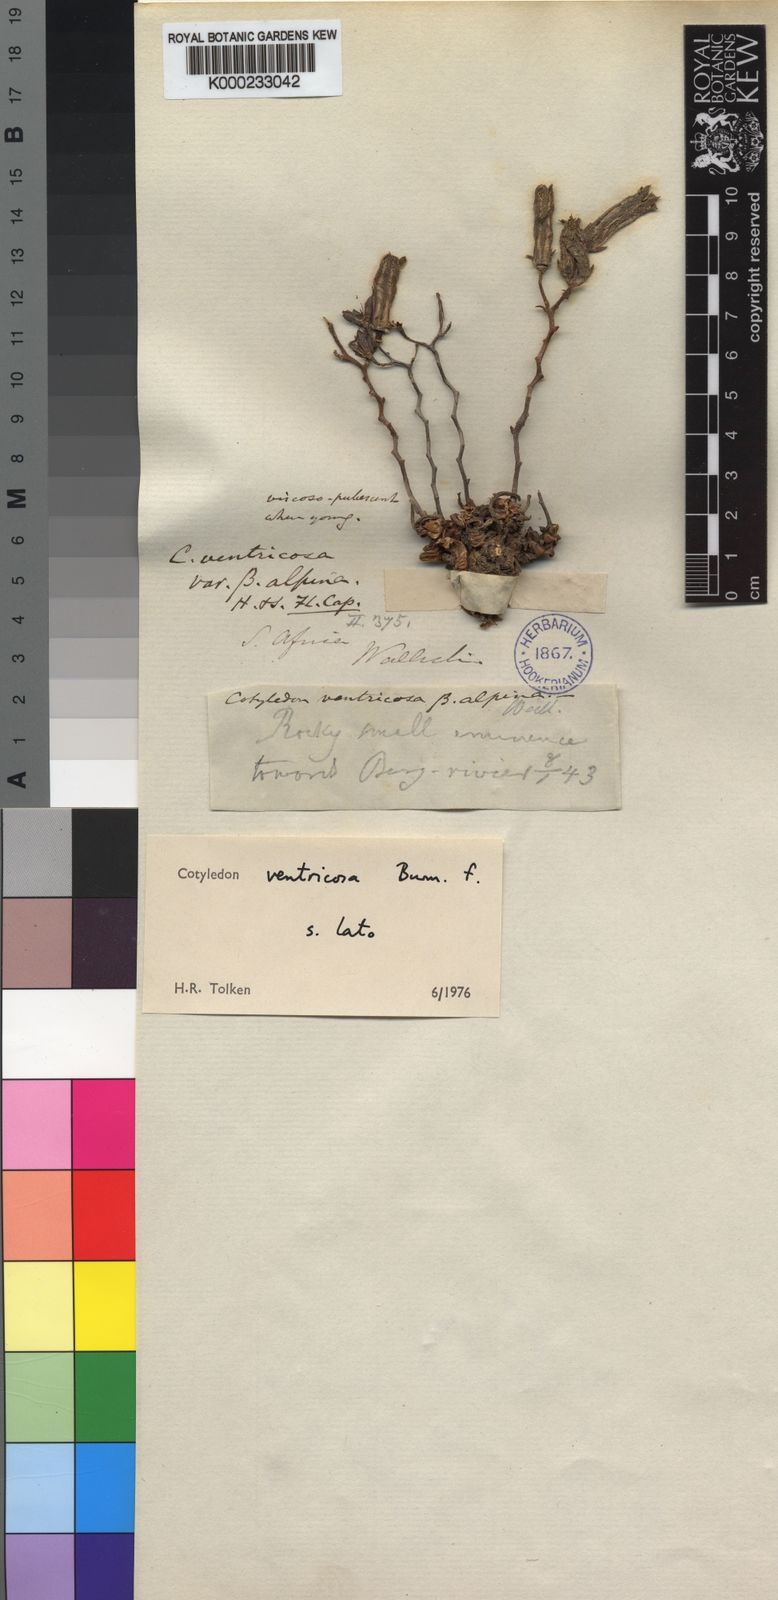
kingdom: Plantae
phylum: Tracheophyta
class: Magnoliopsida
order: Saxifragales
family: Crassulaceae
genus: Tylecodon
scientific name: Tylecodon ventricosus
